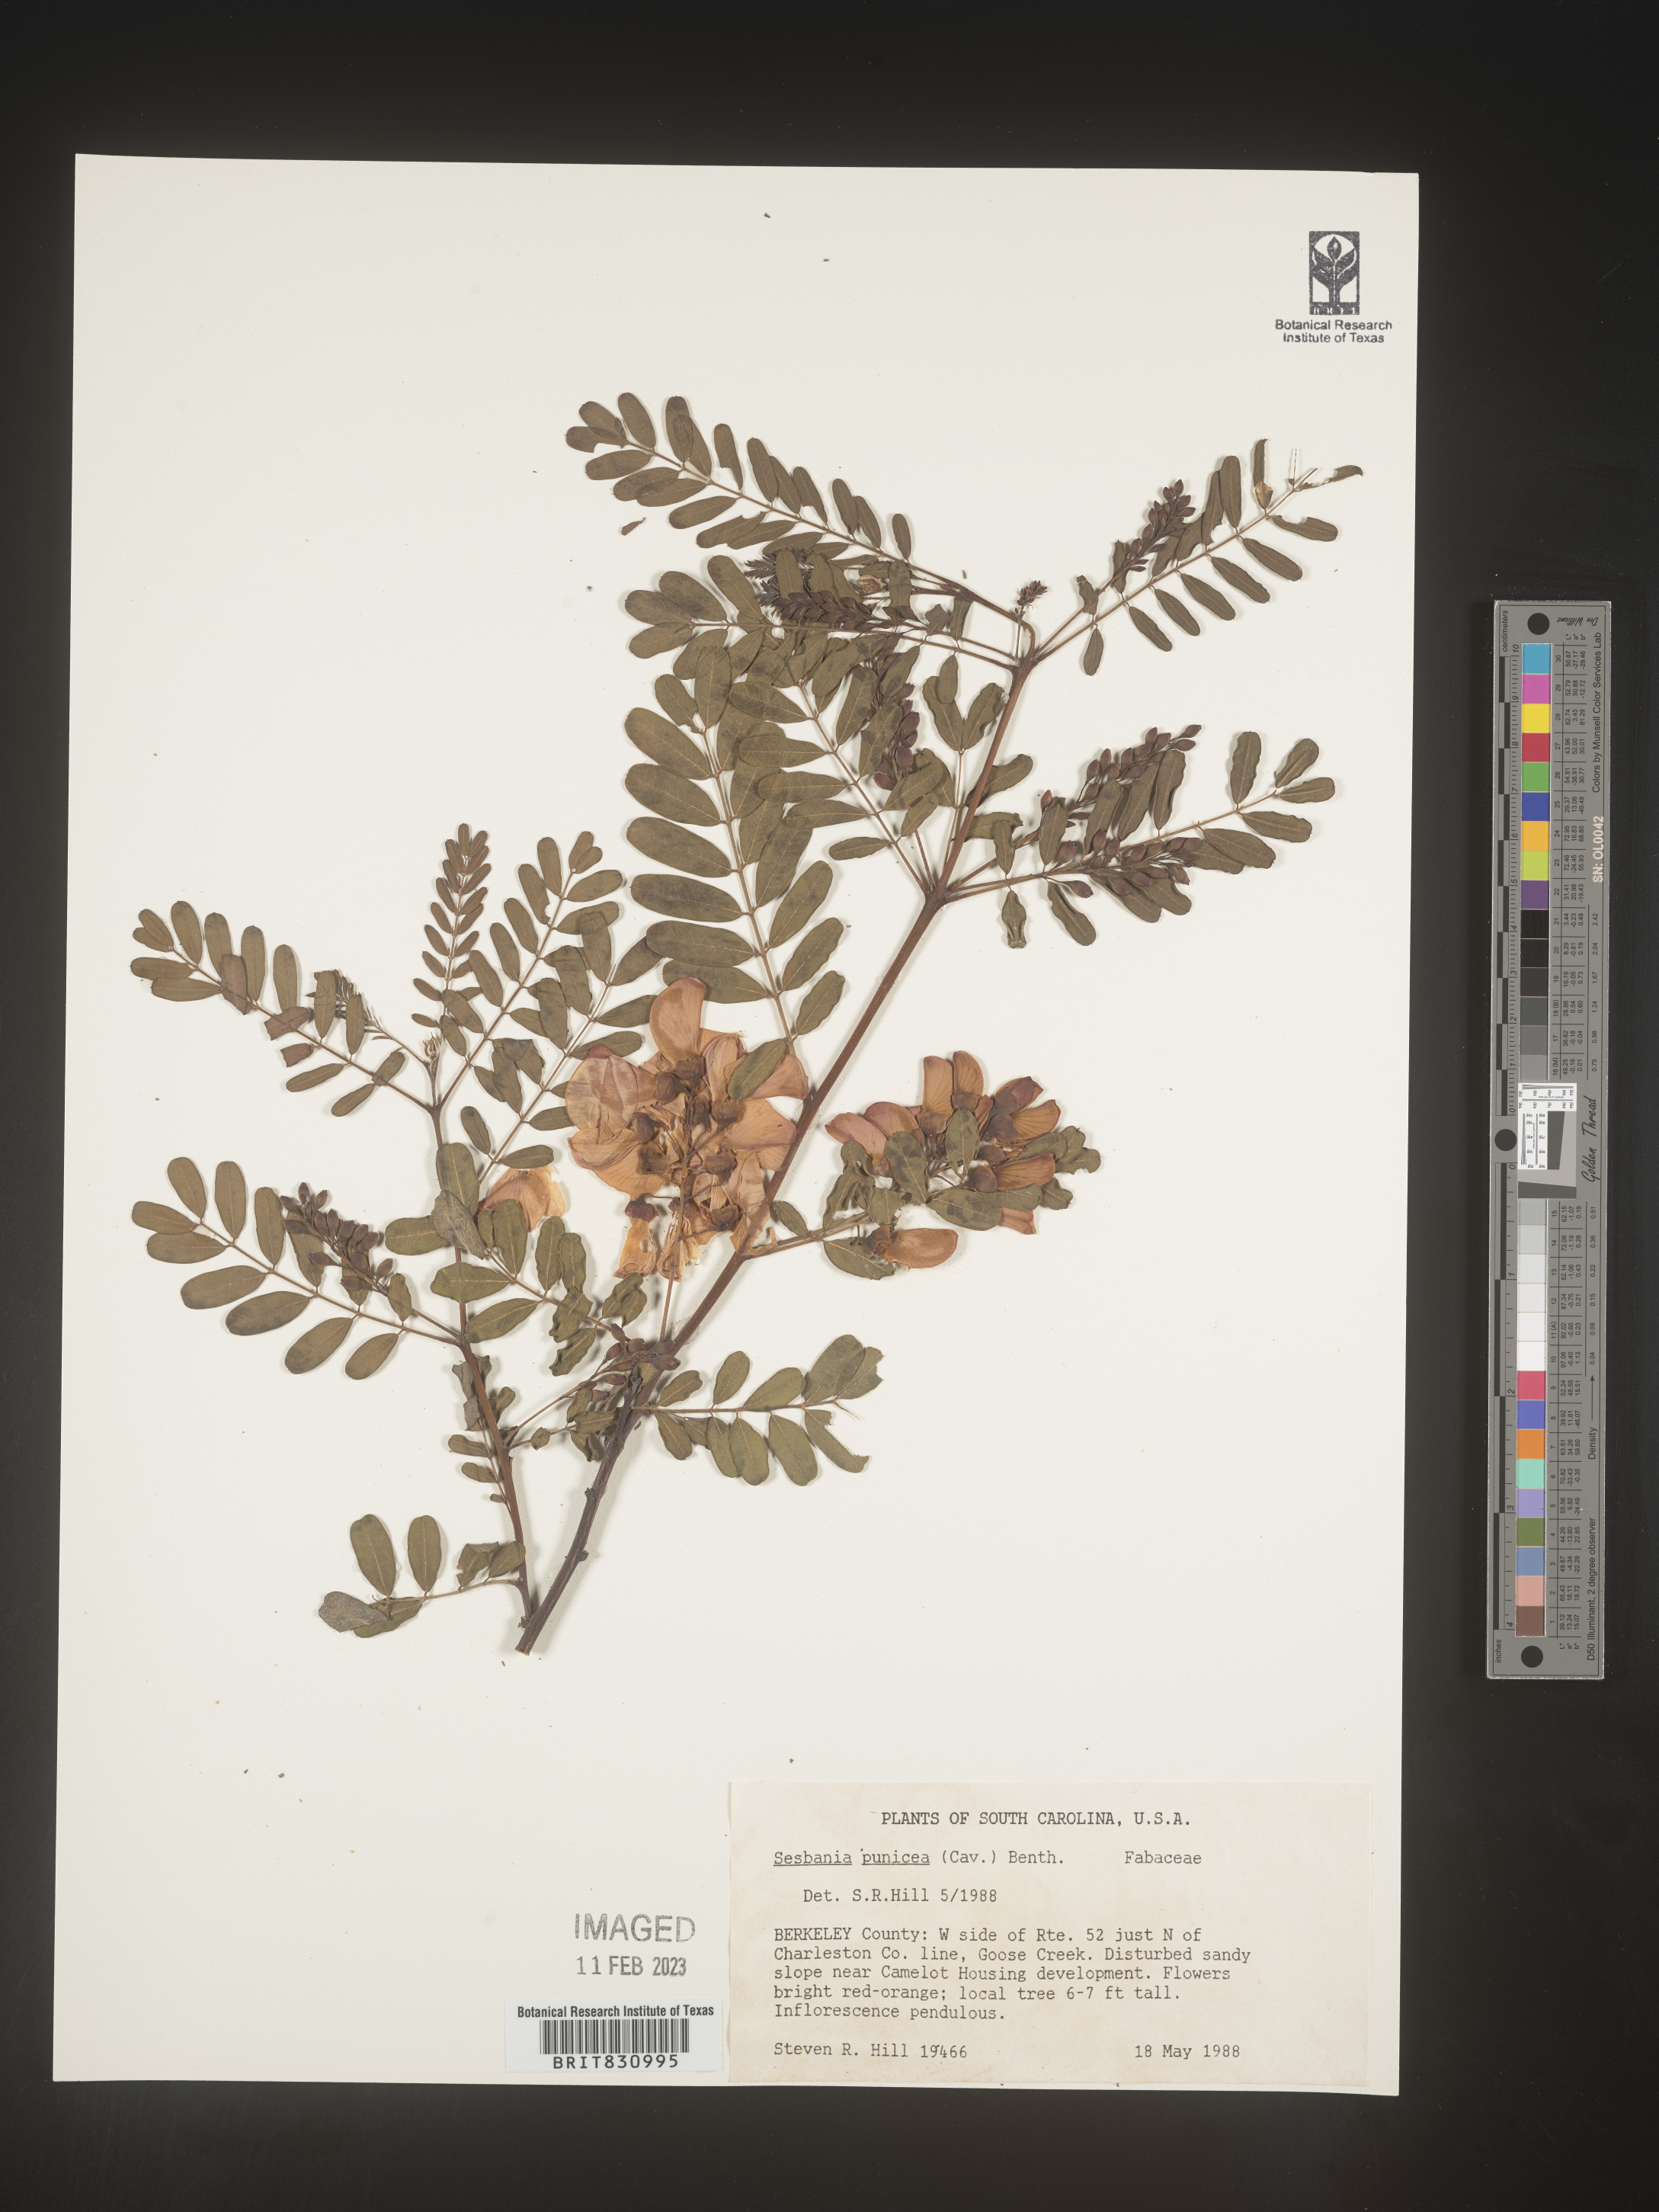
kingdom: Plantae
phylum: Tracheophyta
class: Magnoliopsida
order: Fabales
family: Fabaceae
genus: Sesbania
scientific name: Sesbania punicea
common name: Rattlebox
